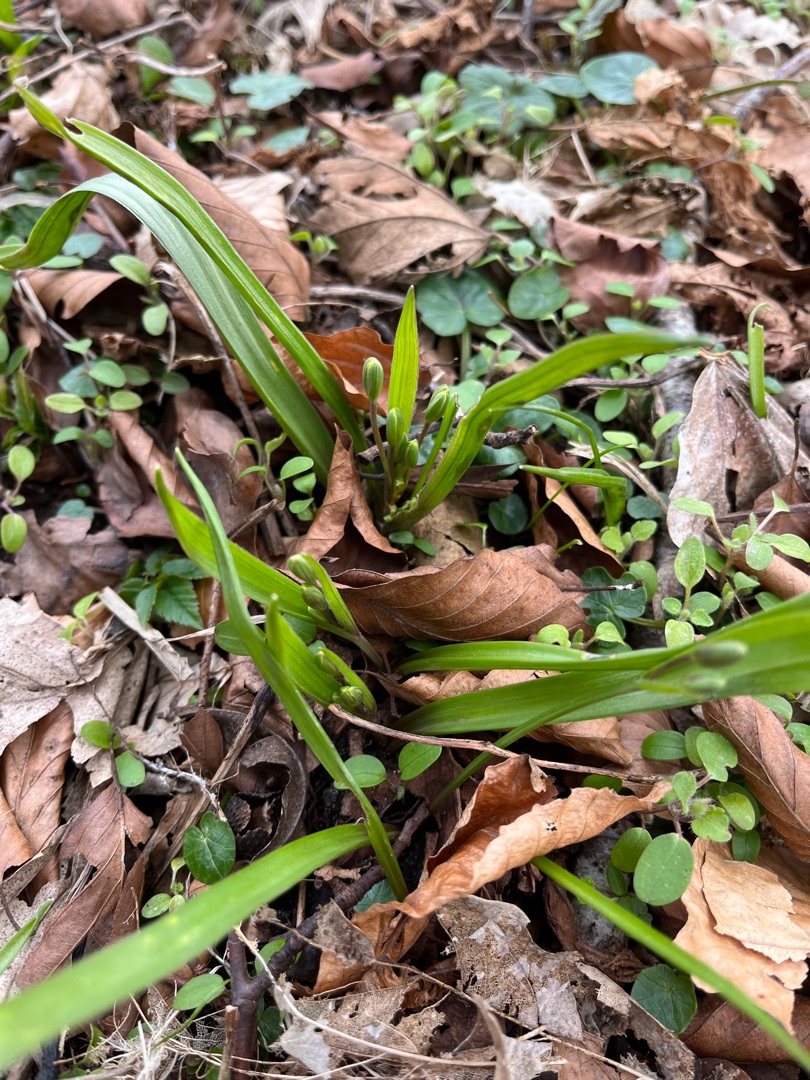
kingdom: Plantae
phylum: Tracheophyta
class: Liliopsida
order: Liliales
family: Liliaceae
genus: Gagea
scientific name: Gagea lutea
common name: Almindelig guldstjerne
